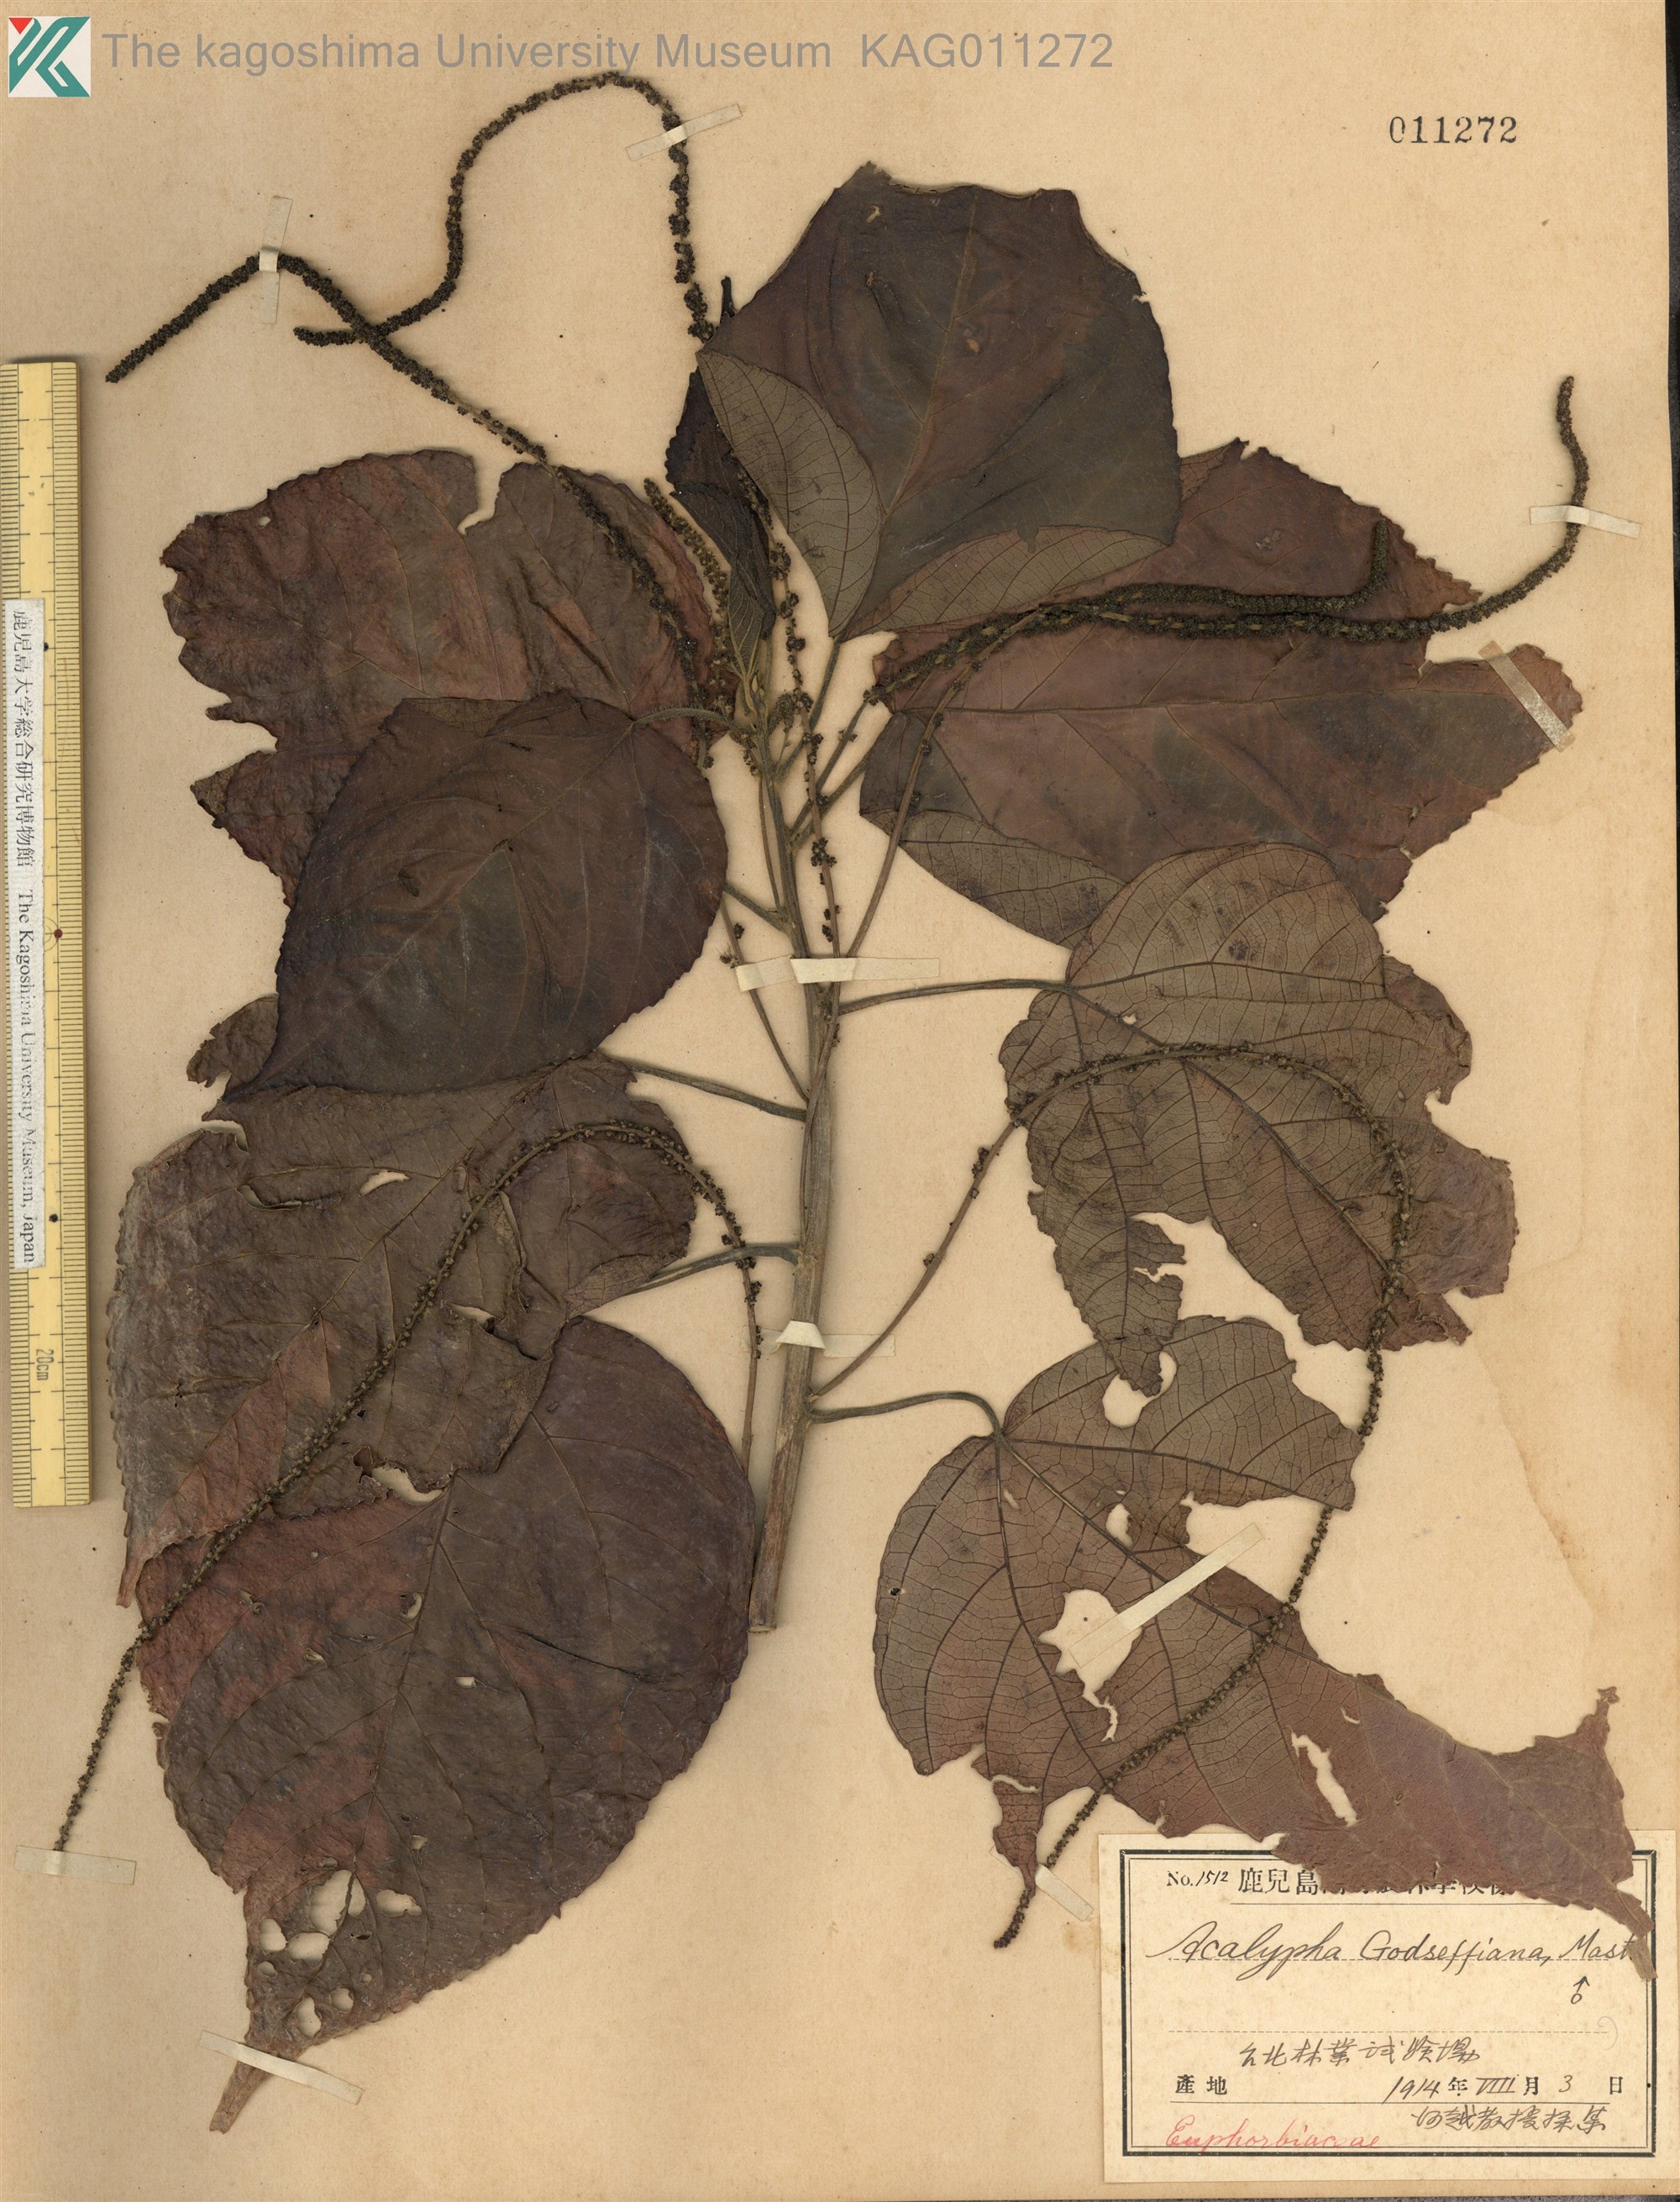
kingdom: Plantae
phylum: Tracheophyta
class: Magnoliopsida
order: Malpighiales
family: Euphorbiaceae
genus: Acalypha
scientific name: Acalypha wilkesiana
